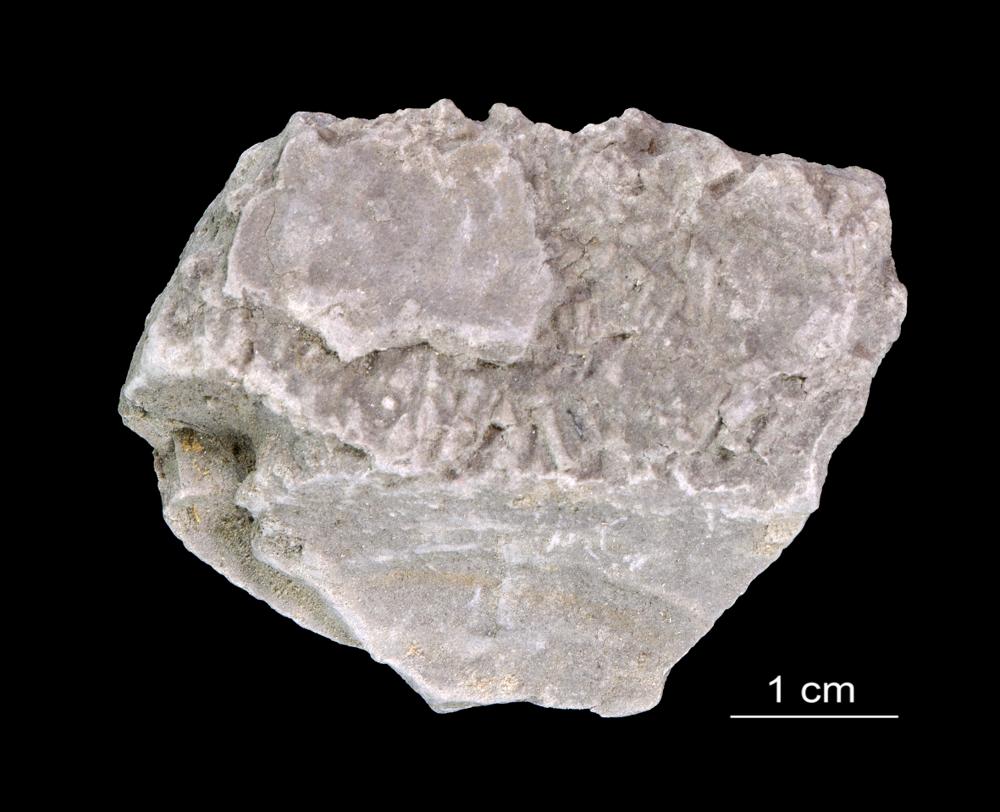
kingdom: Animalia
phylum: Annelida
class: Polychaeta
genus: Volborthella
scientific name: Volborthella tenuis
